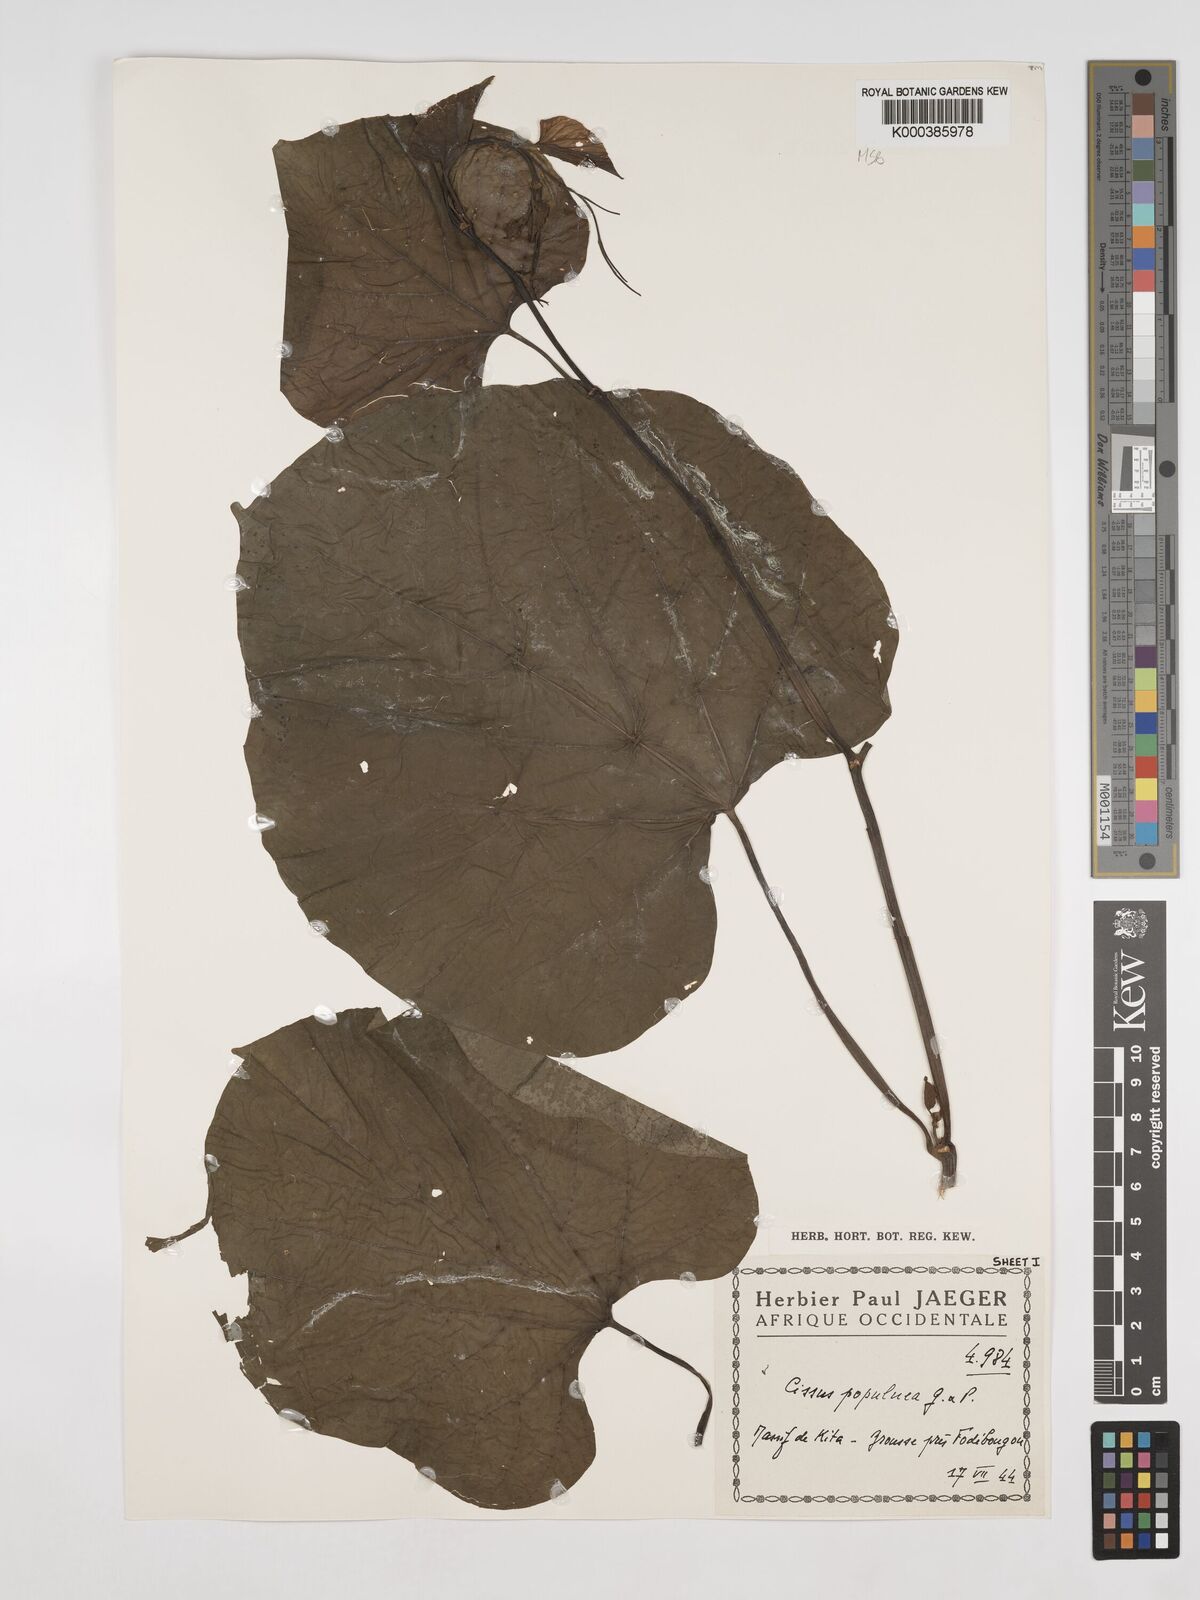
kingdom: Plantae
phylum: Tracheophyta
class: Magnoliopsida
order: Vitales
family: Vitaceae
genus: Cissus
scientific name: Cissus populnea
